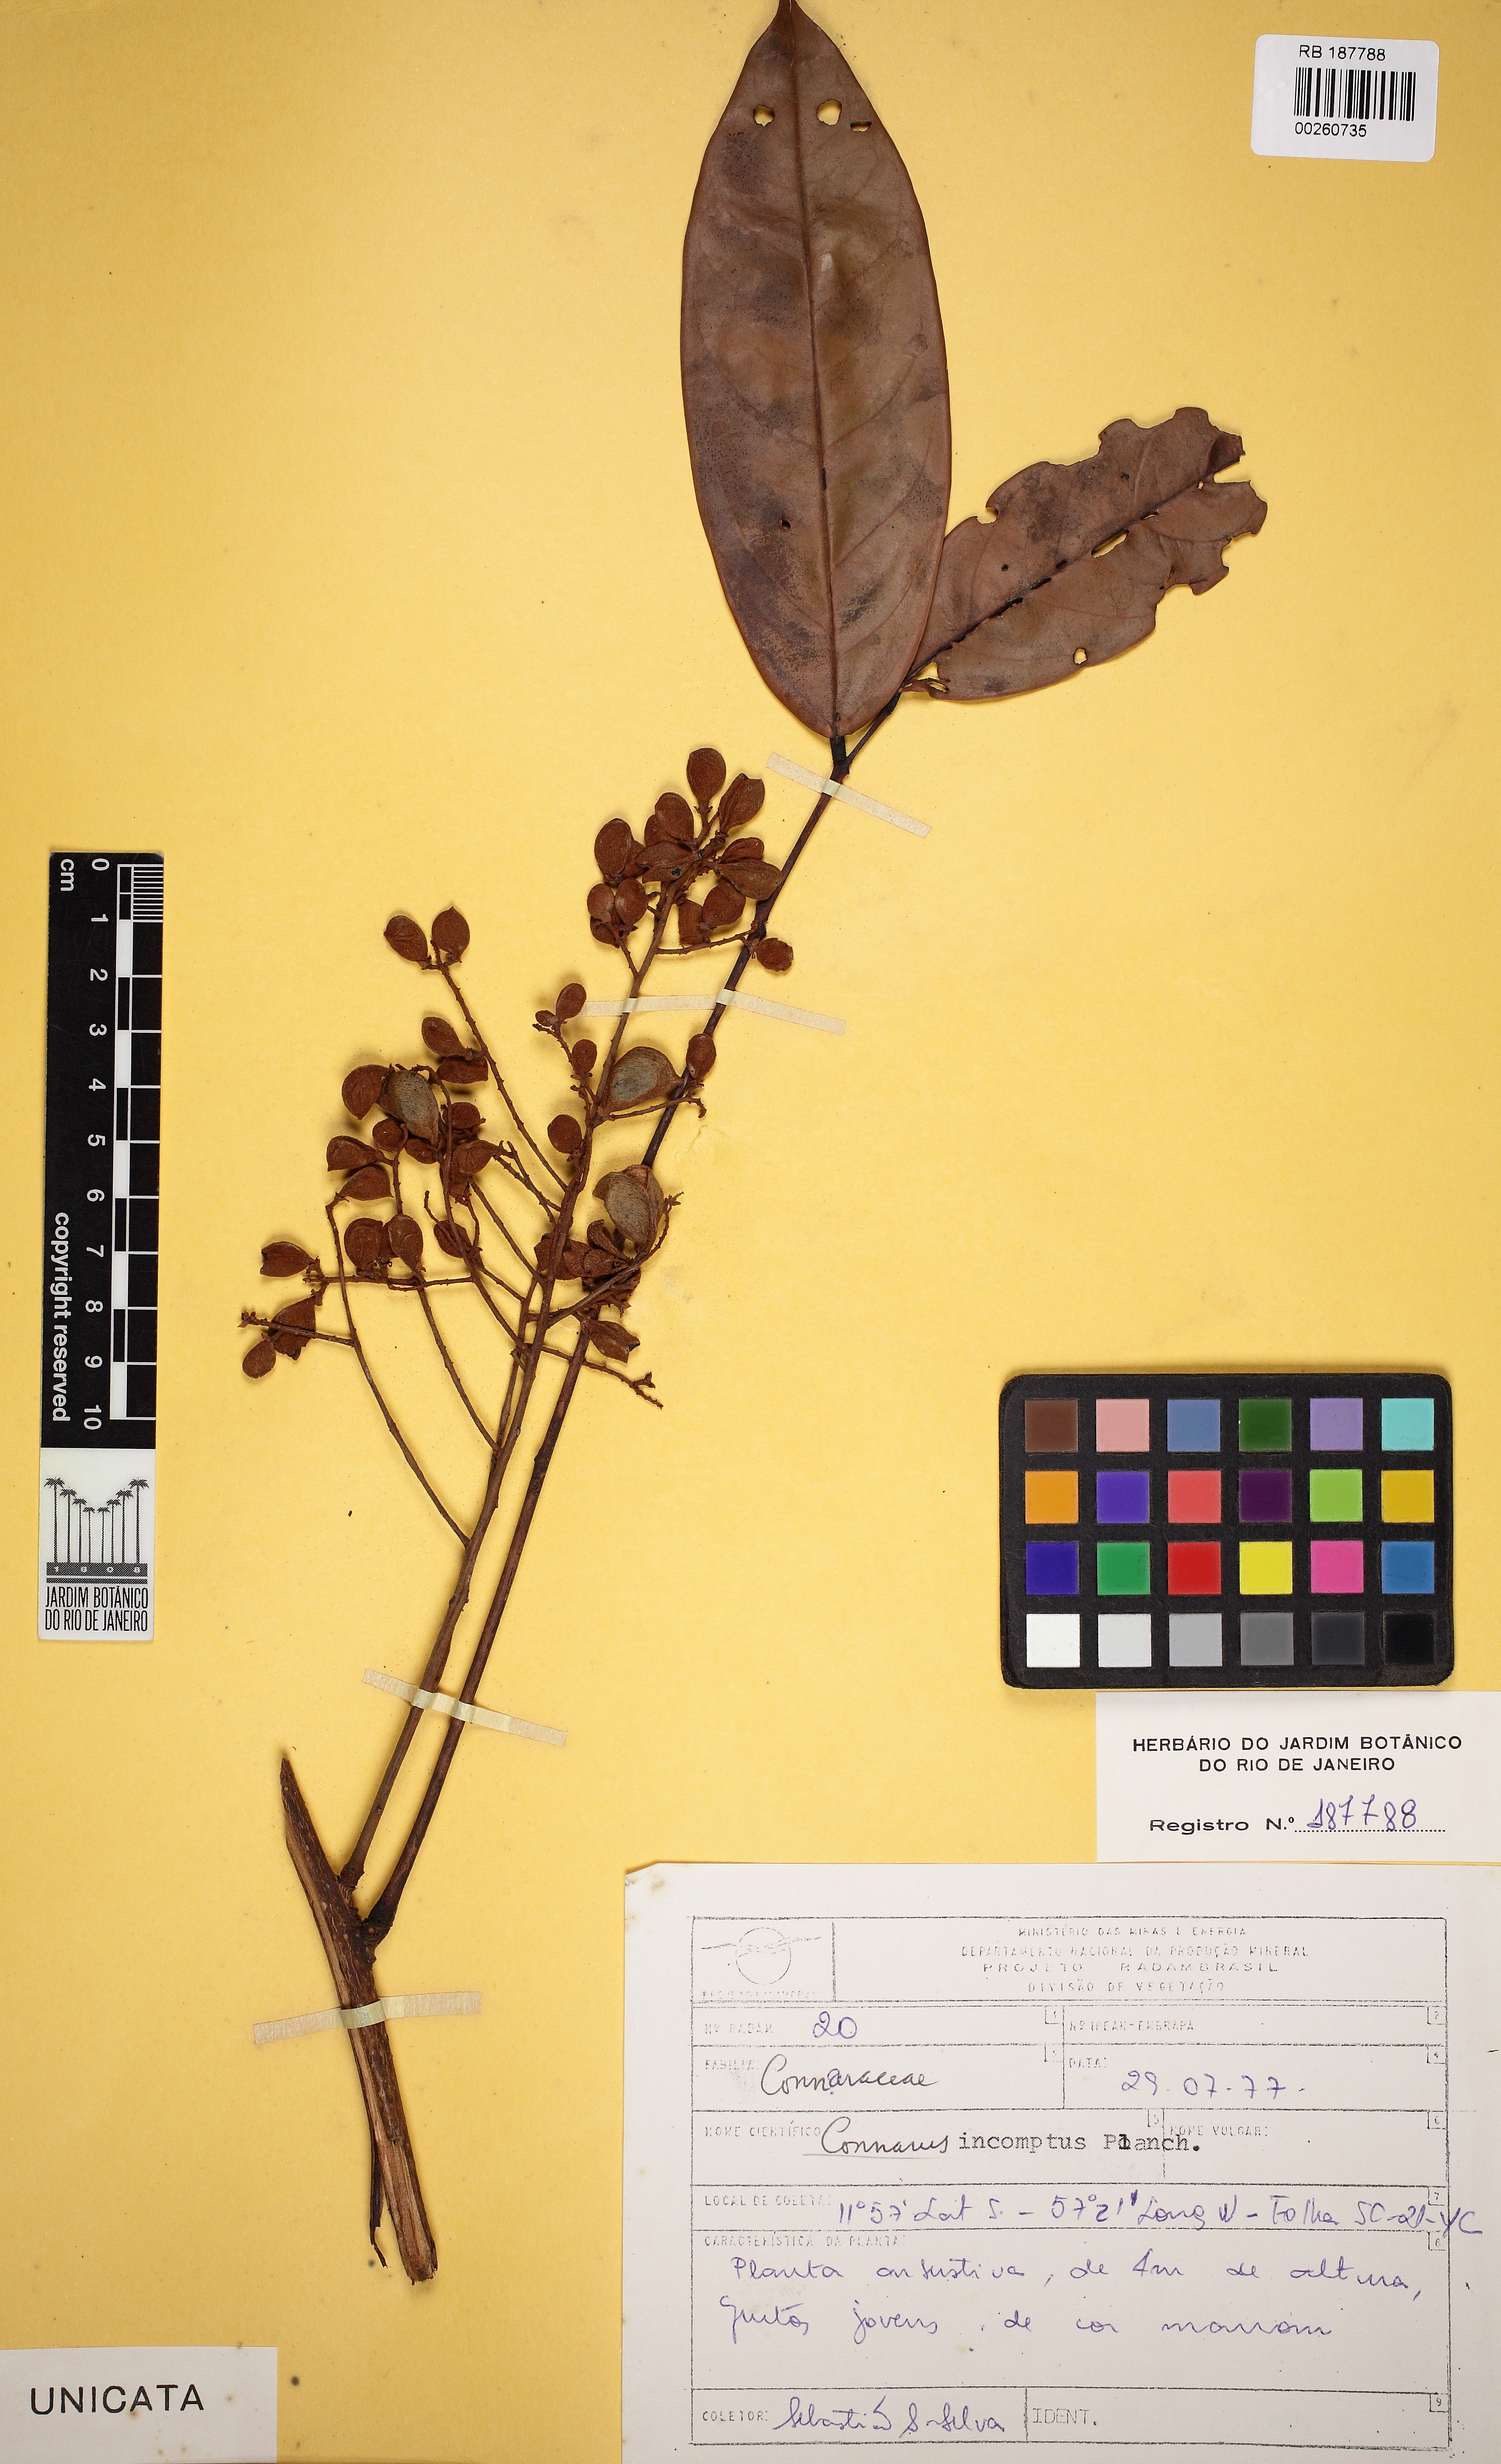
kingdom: Plantae
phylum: Tracheophyta
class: Magnoliopsida
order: Oxalidales
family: Connaraceae
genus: Connarus
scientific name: Connarus perrottetii
